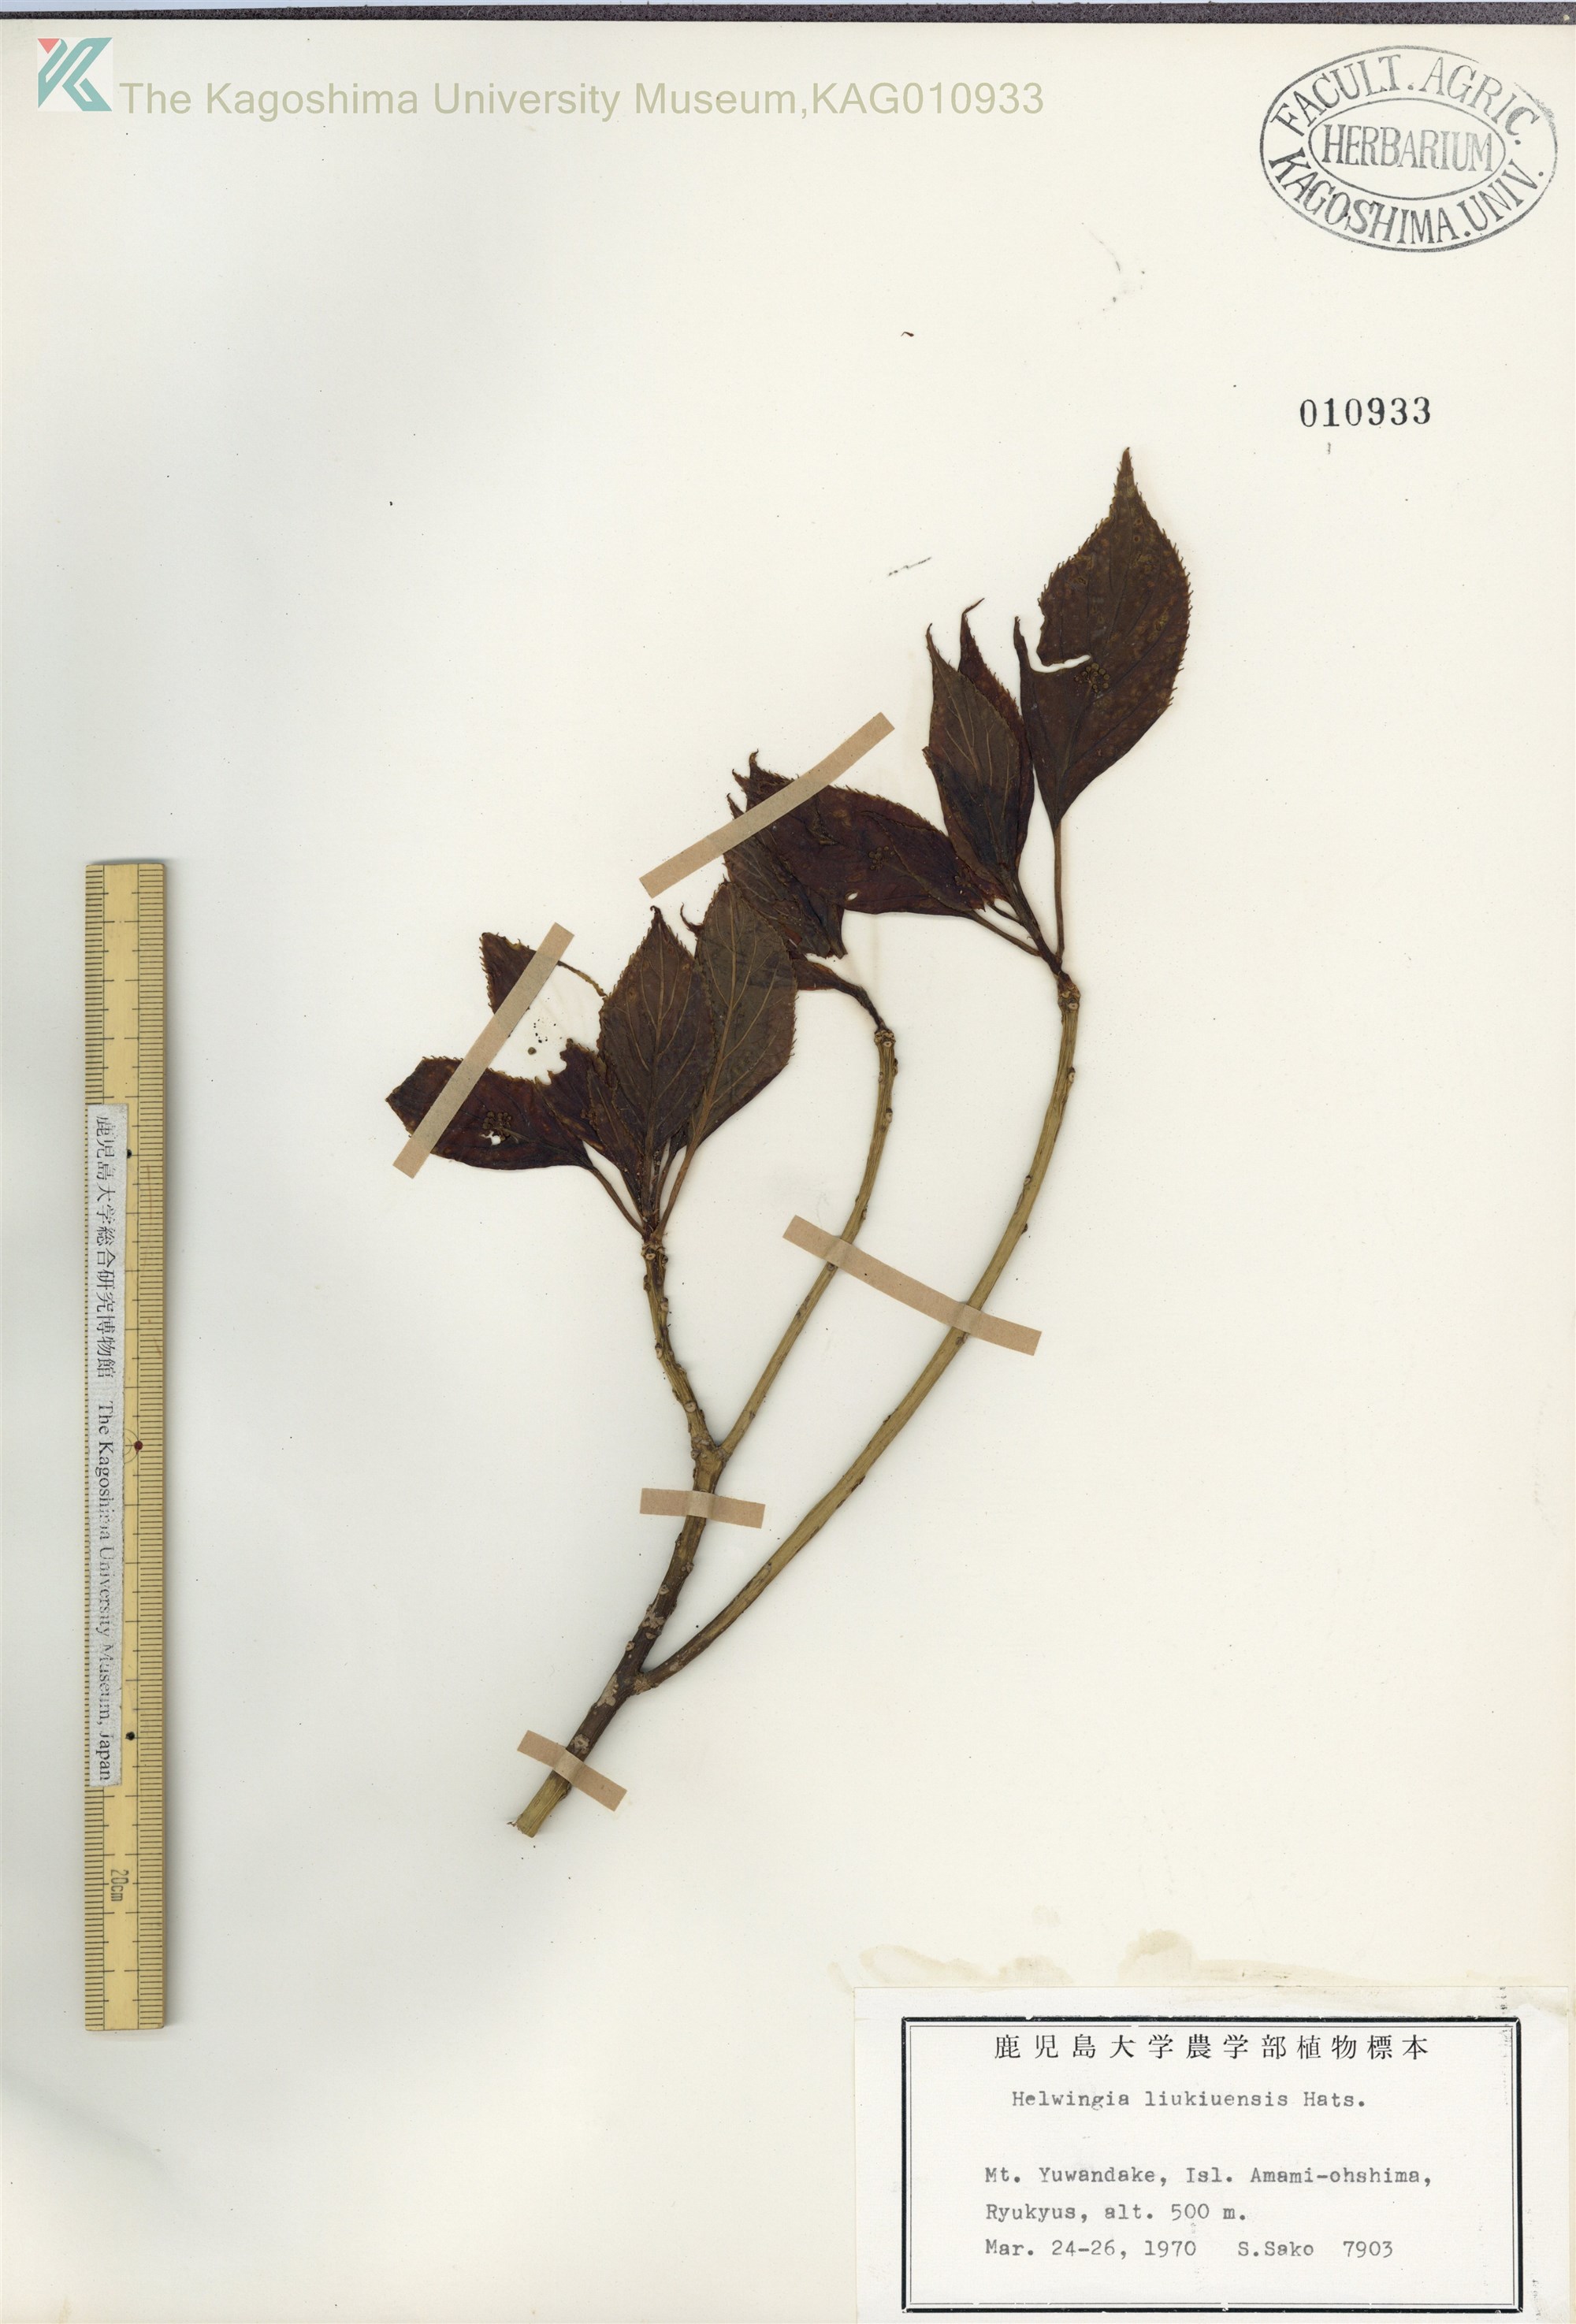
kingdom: Plantae
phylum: Tracheophyta
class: Magnoliopsida
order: Aquifoliales
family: Helwingiaceae
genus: Helwingia
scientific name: Helwingia japonica
